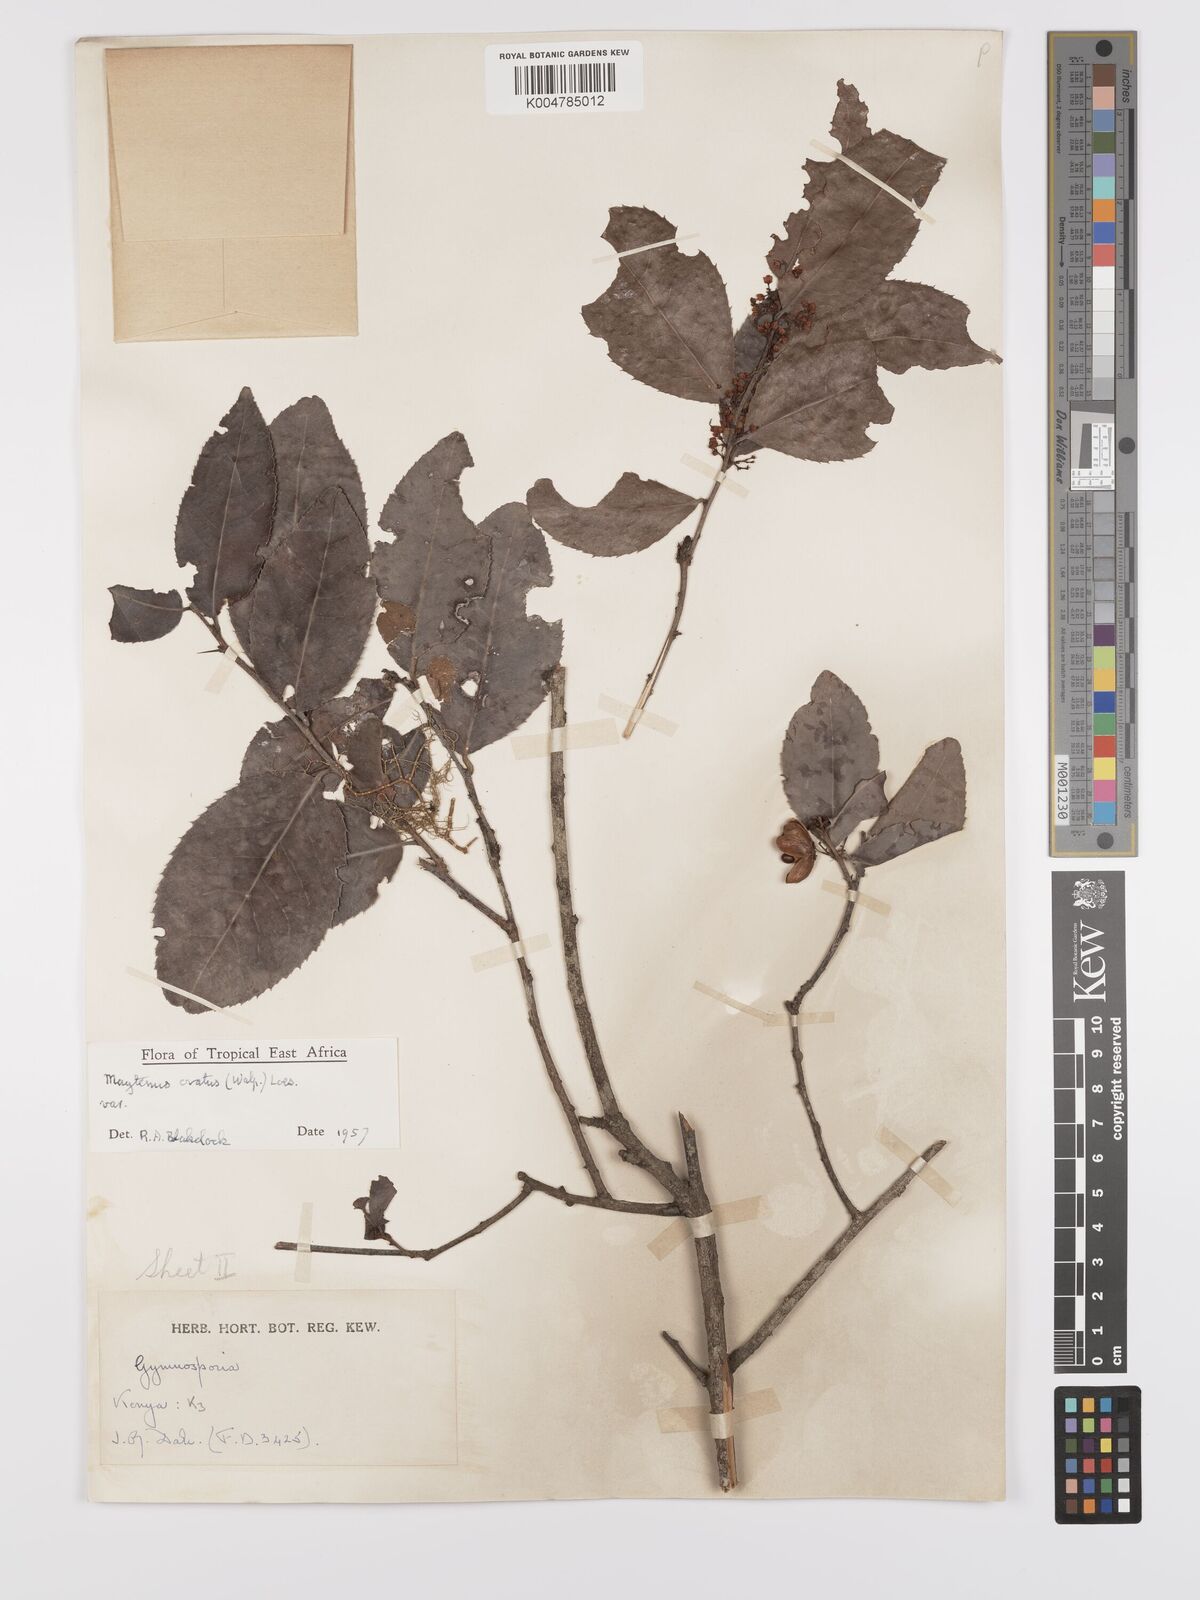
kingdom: Plantae
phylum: Tracheophyta
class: Magnoliopsida
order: Celastrales
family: Celastraceae
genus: Gymnosporia
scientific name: Gymnosporia buchananii
